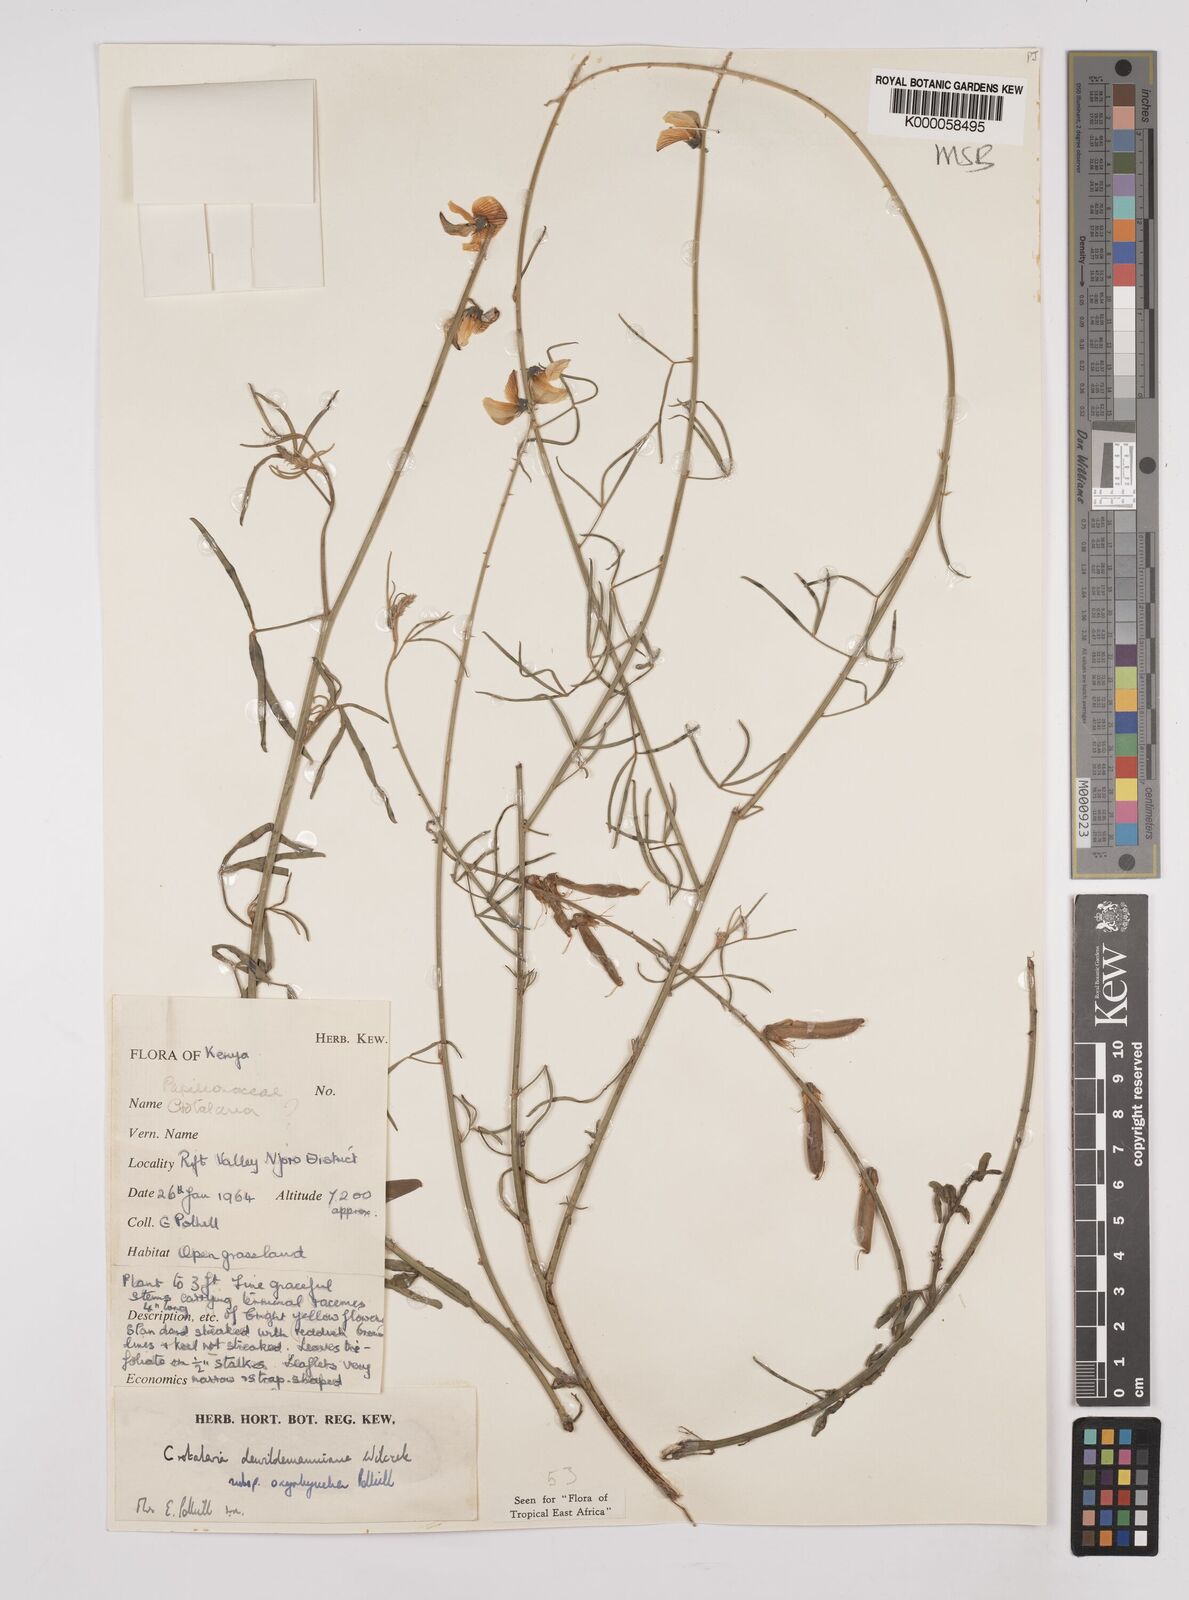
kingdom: Plantae
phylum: Tracheophyta
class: Magnoliopsida
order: Fabales
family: Fabaceae
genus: Crotalaria
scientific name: Crotalaria dewildemaniana
